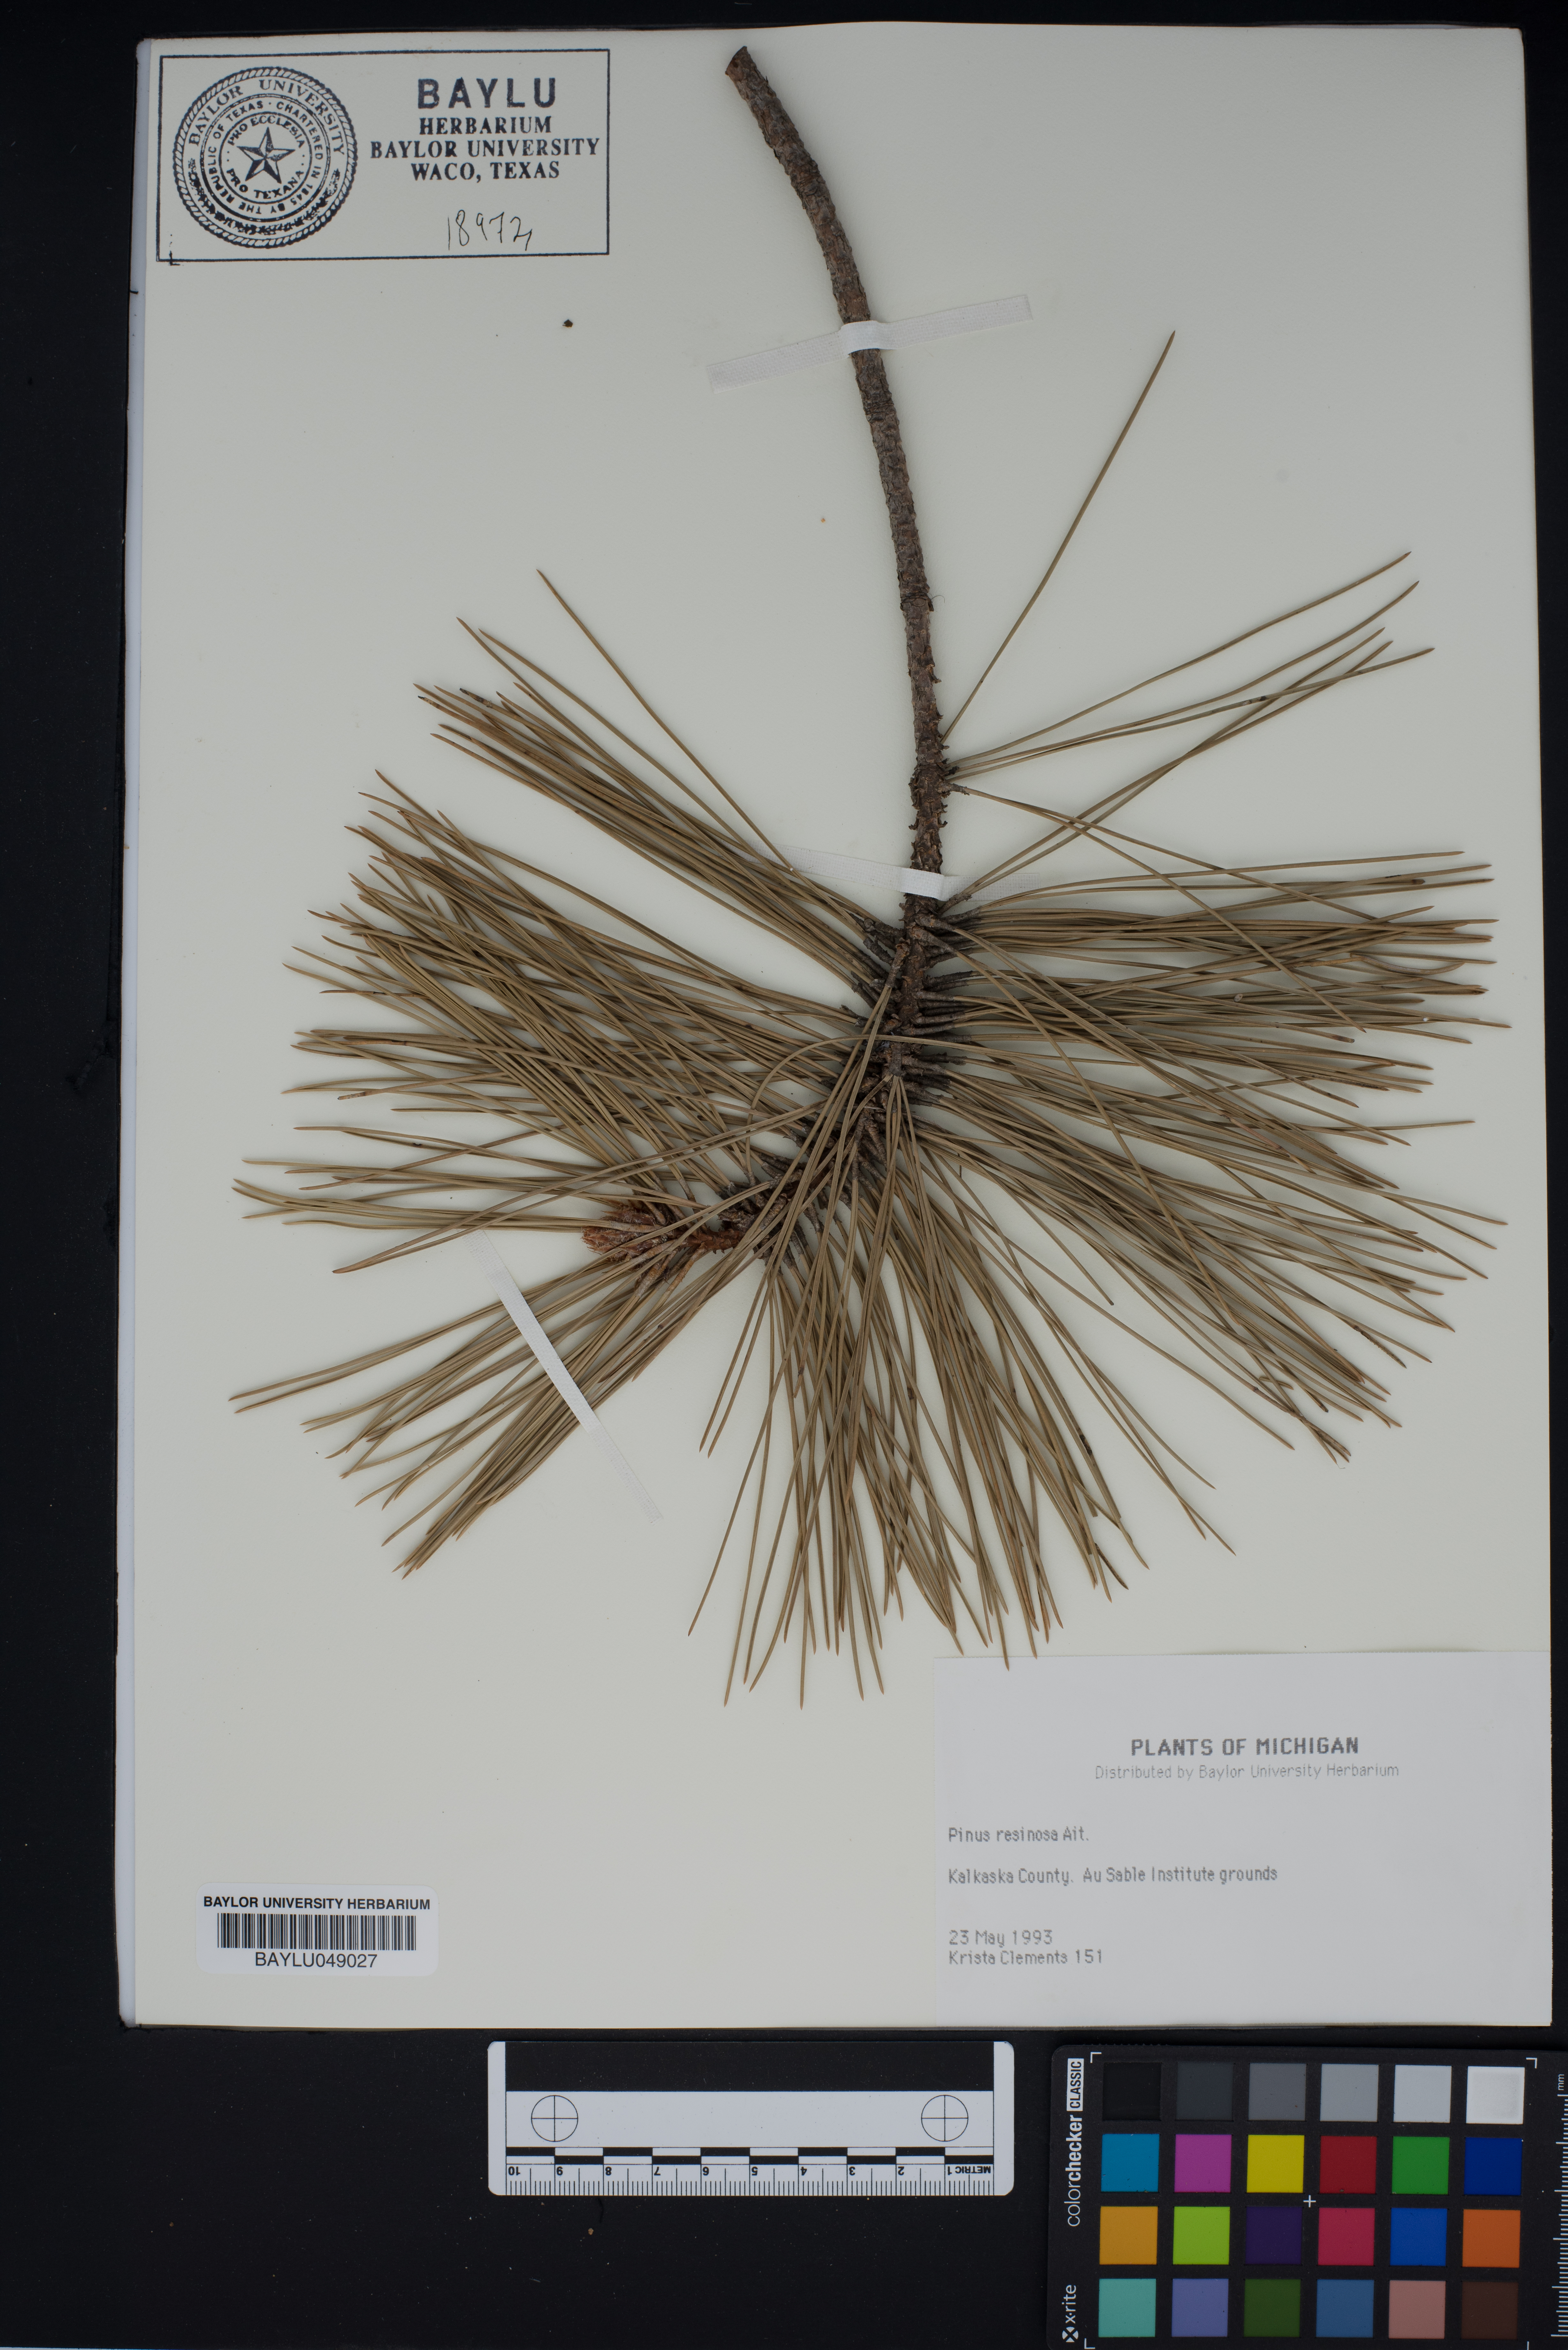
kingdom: Plantae
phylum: Tracheophyta
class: Pinopsida
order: Pinales
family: Pinaceae
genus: Pinus
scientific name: Pinus resinosa
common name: Norway pine
